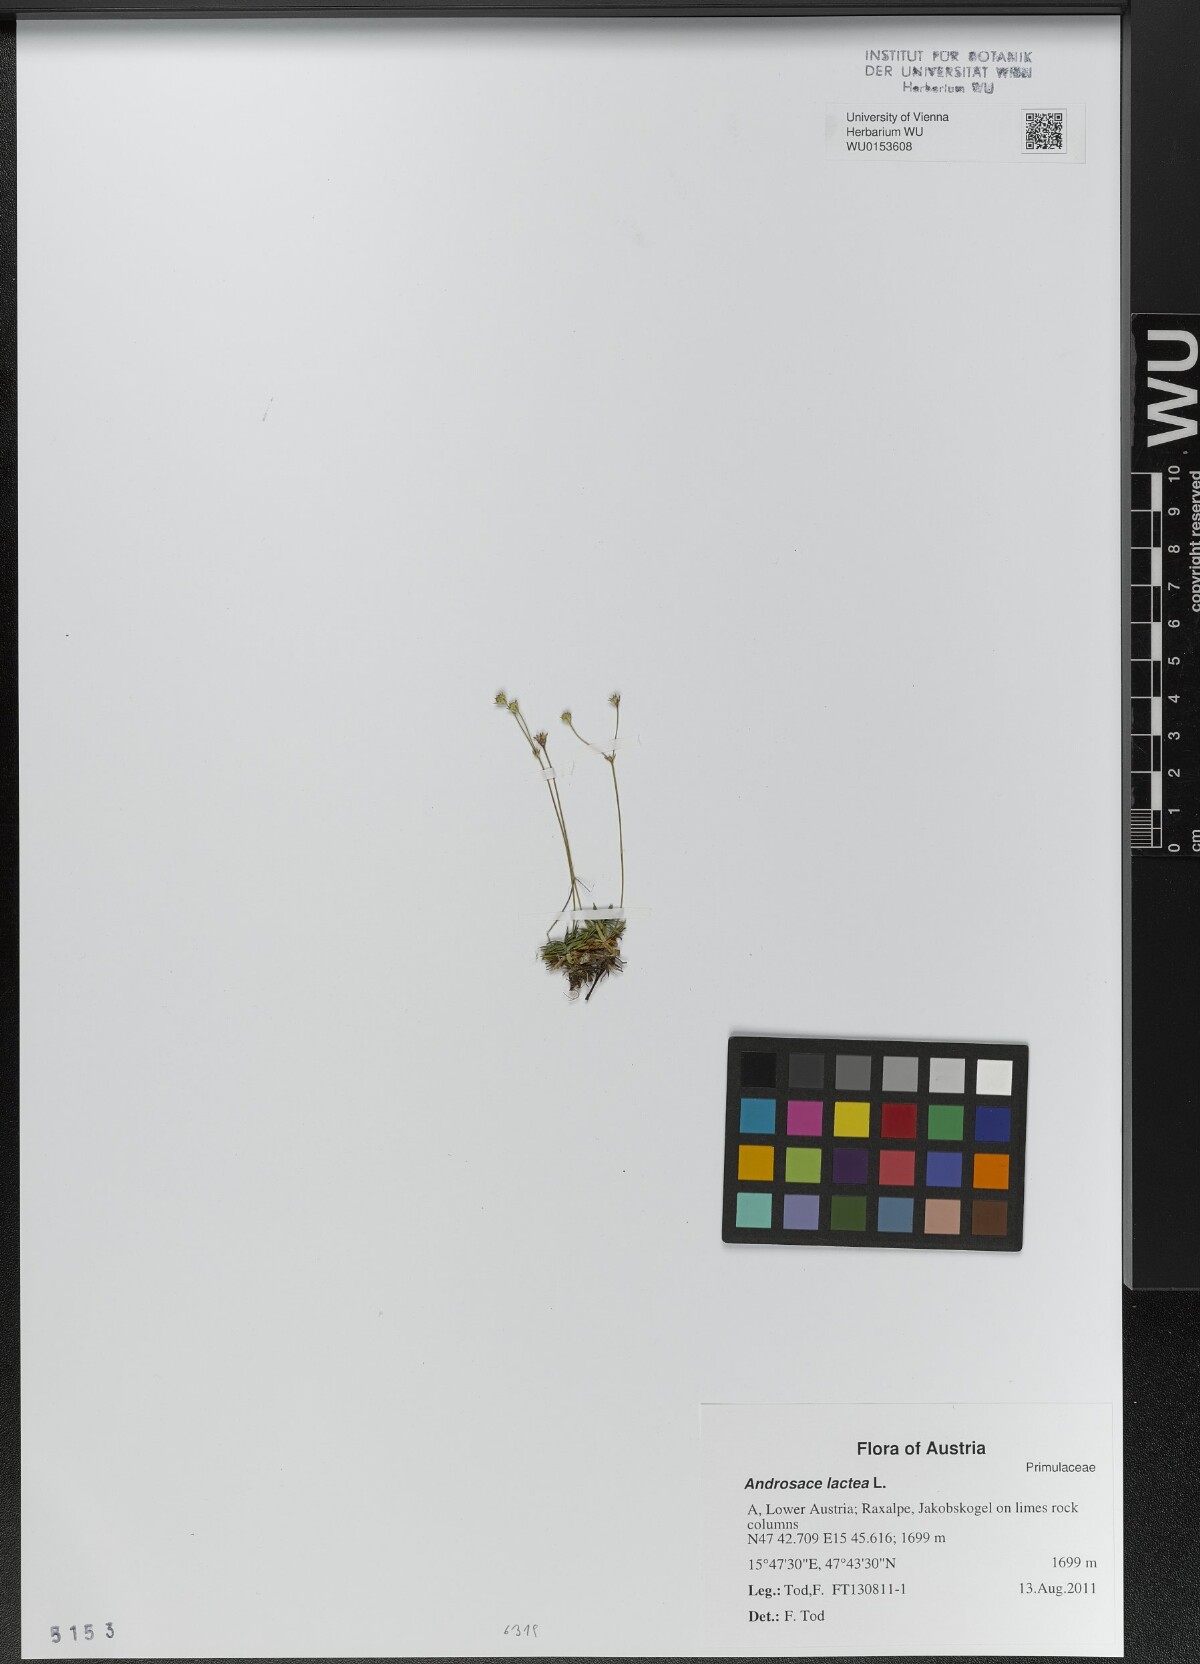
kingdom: Plantae
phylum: Tracheophyta
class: Magnoliopsida
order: Ericales
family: Primulaceae
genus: Androsace
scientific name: Androsace lactea
